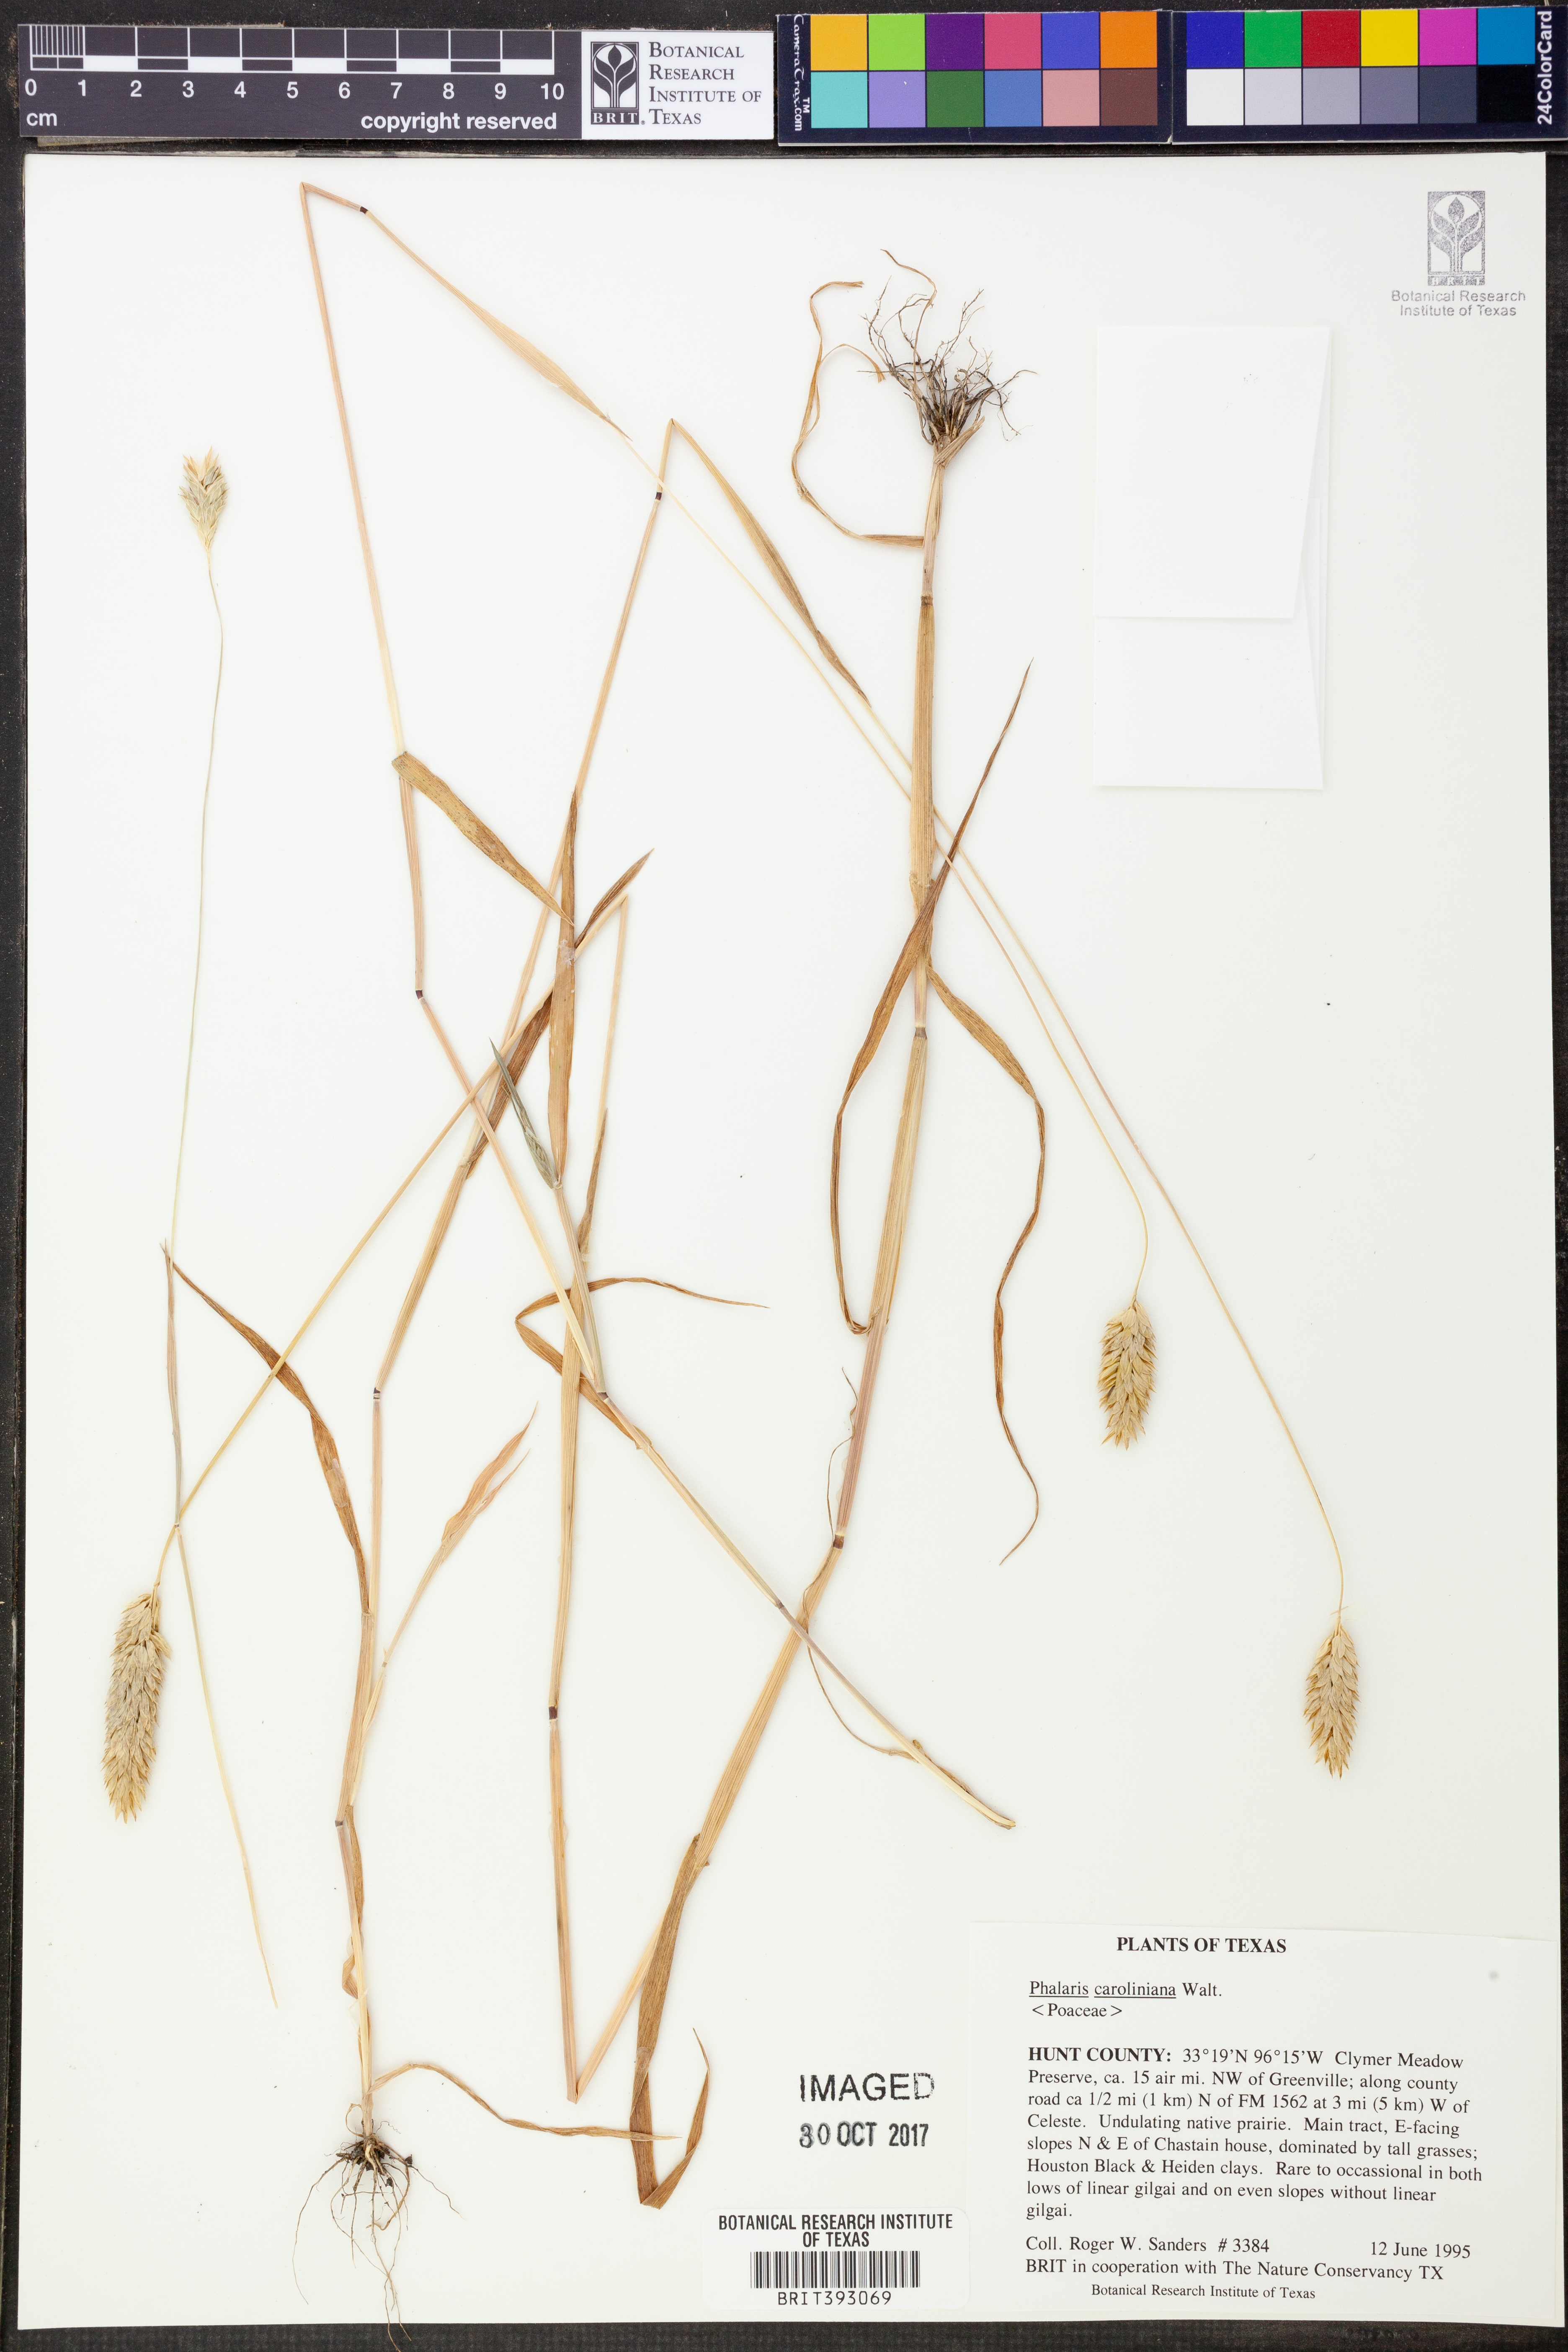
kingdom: Plantae
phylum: Tracheophyta
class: Liliopsida
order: Poales
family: Poaceae
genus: Phalaris
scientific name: Phalaris caroliniana
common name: May grass
